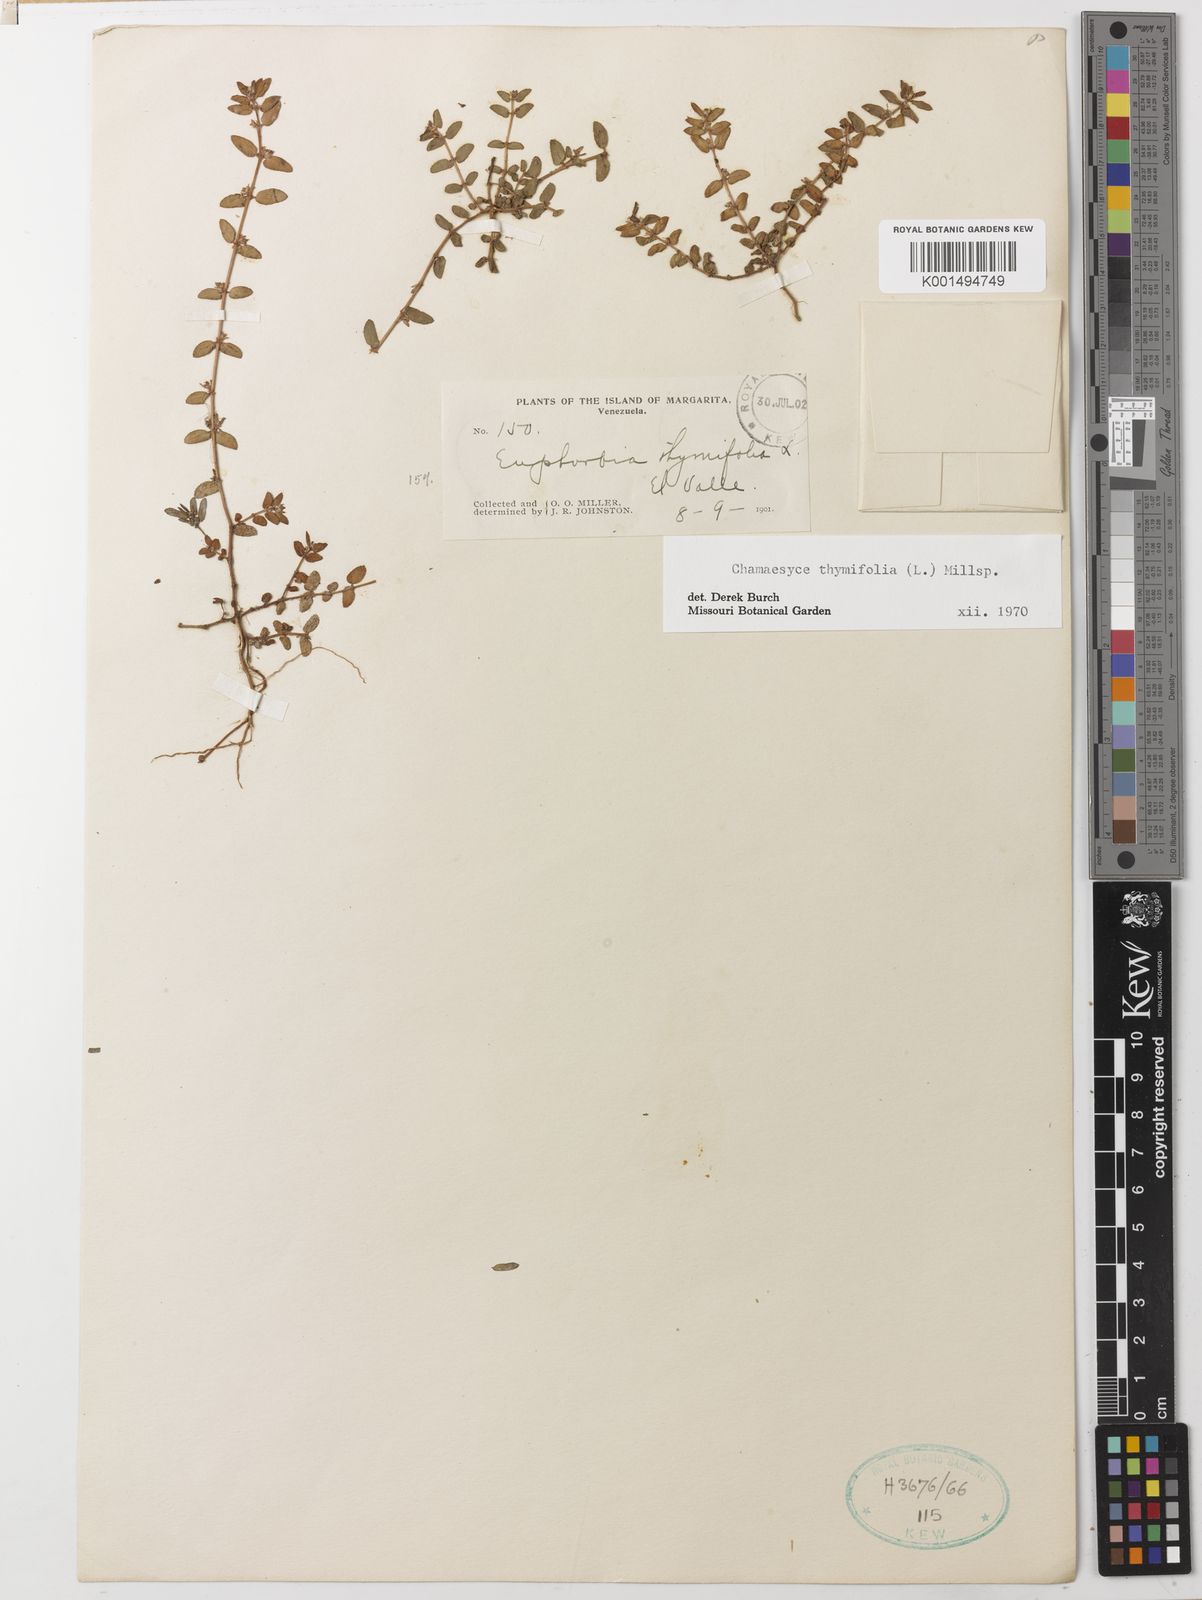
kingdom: Plantae
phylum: Tracheophyta
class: Magnoliopsida
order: Malpighiales
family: Euphorbiaceae
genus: Euphorbia
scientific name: Euphorbia thymifolia
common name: Gulf sandmat
